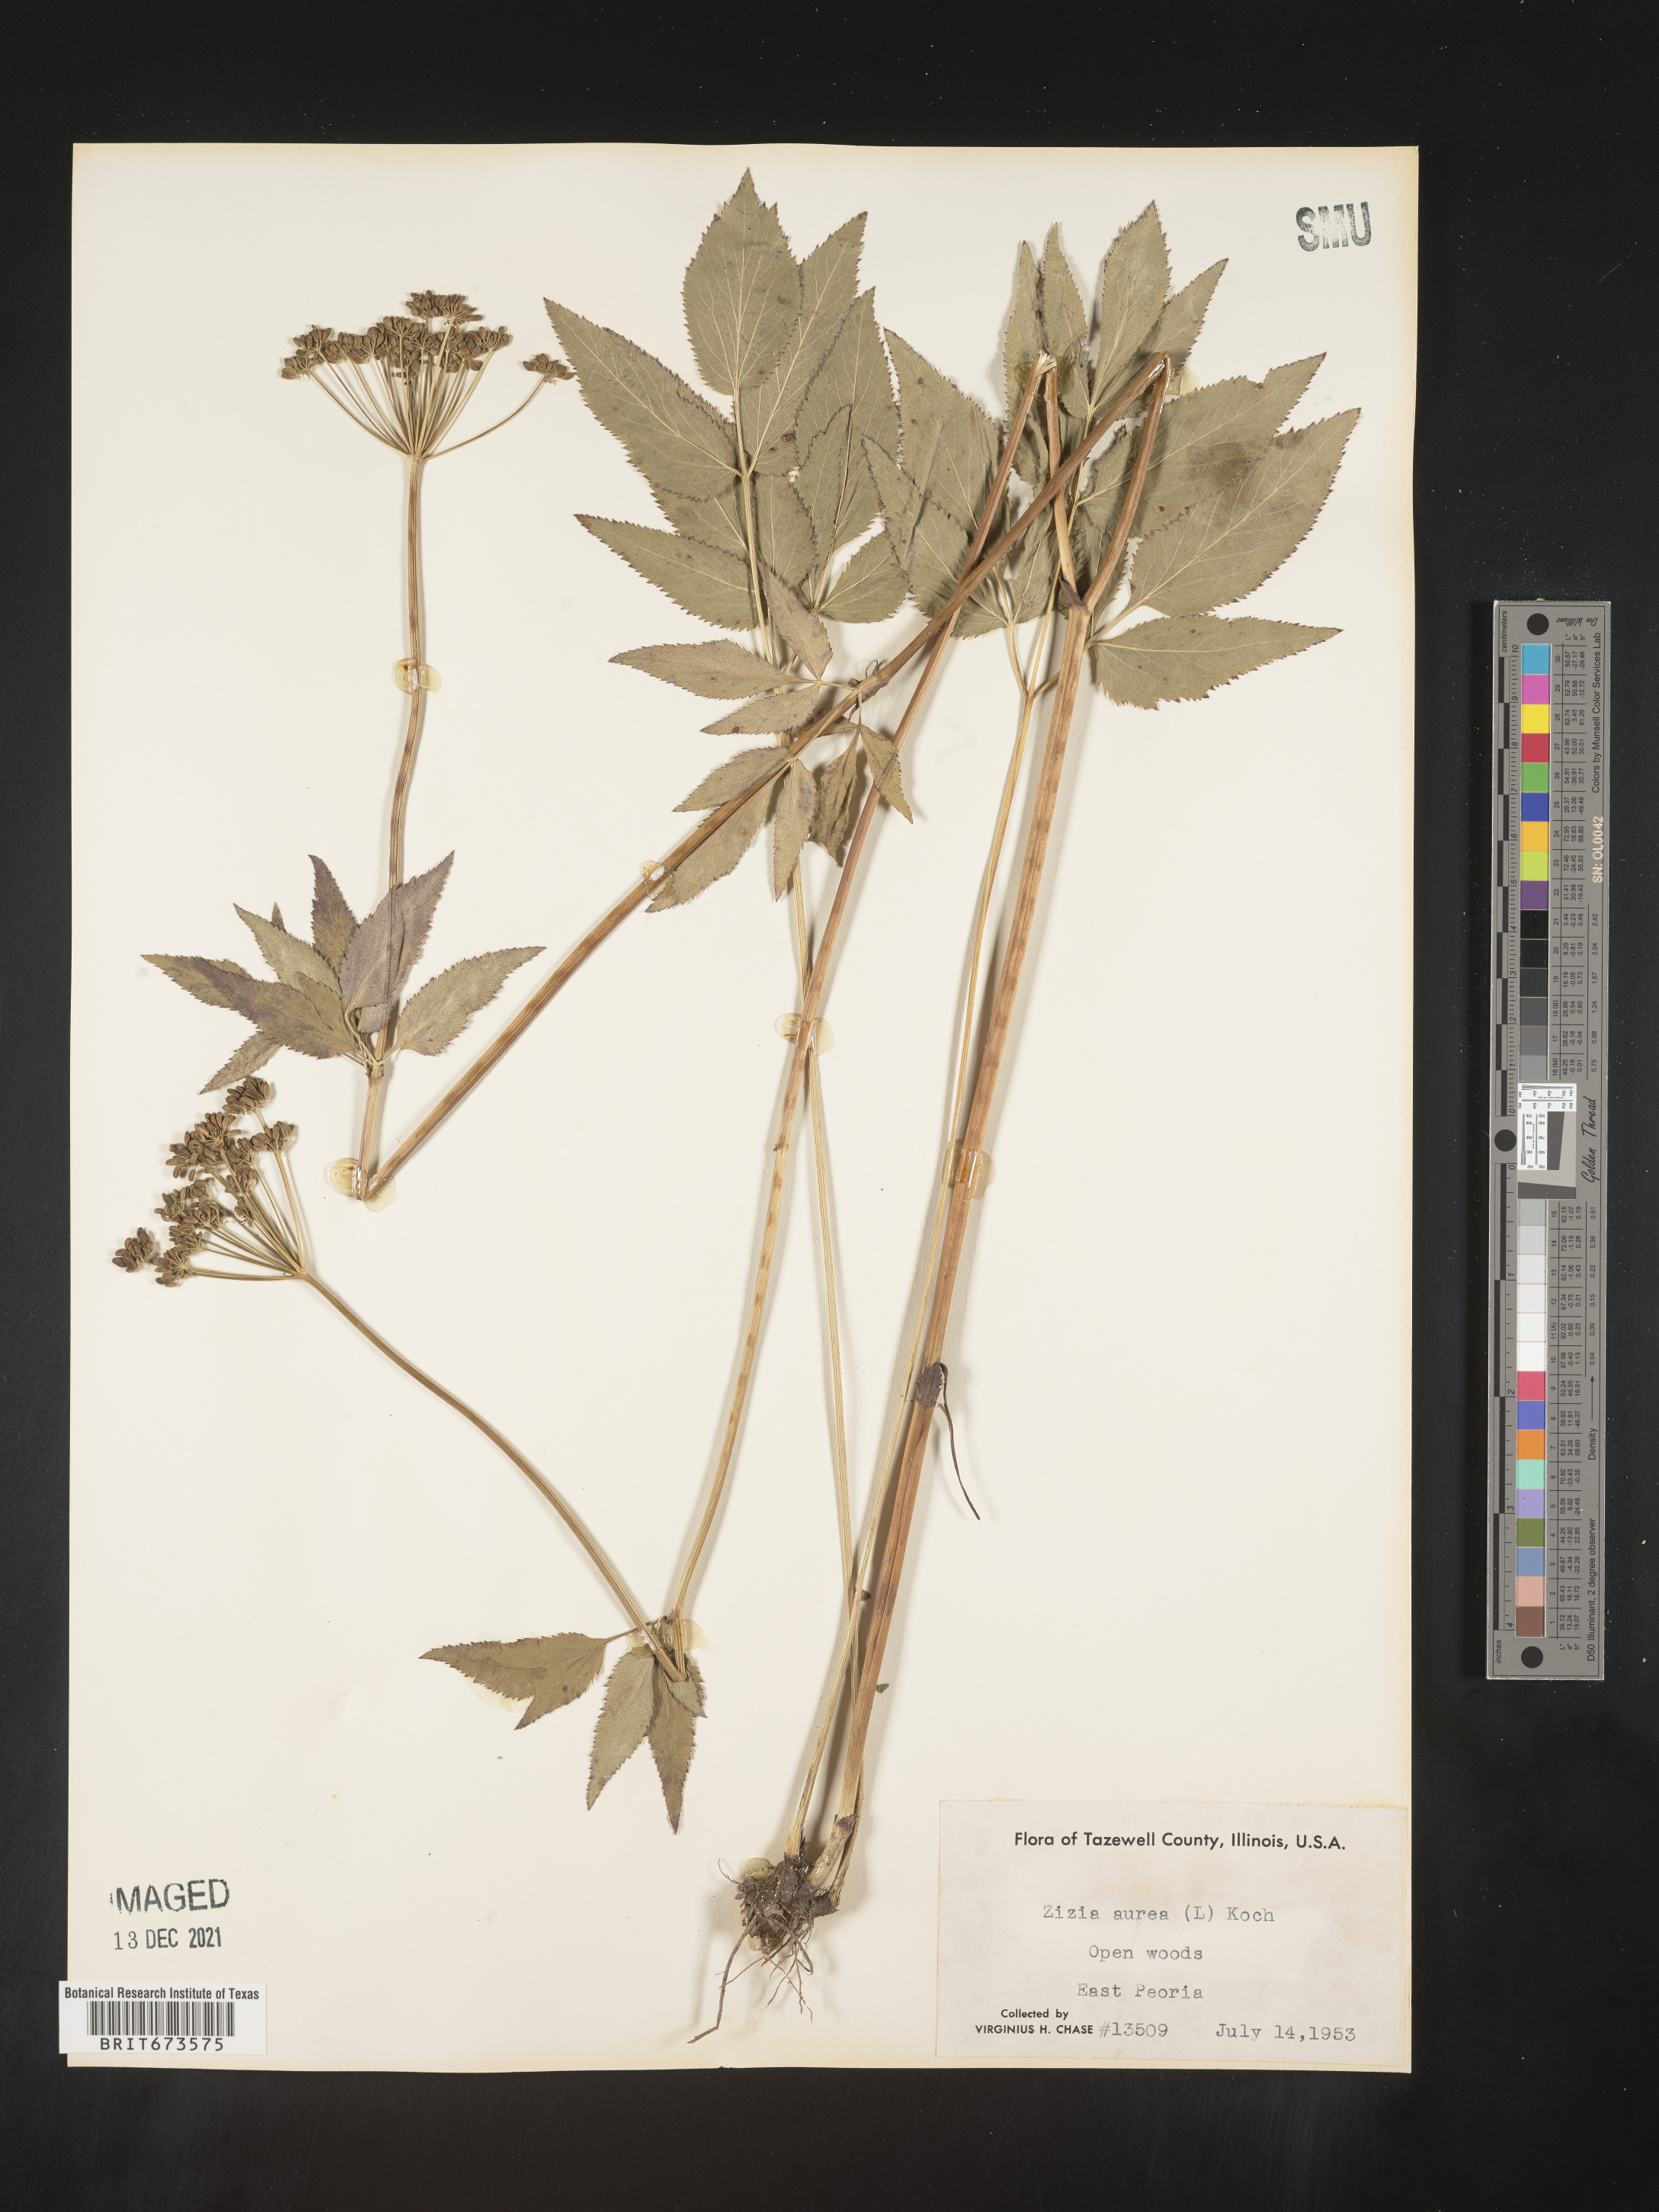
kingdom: Plantae
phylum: Tracheophyta
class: Magnoliopsida
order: Apiales
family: Apiaceae
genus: Zizia
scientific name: Zizia aurea
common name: Golden alexanders
